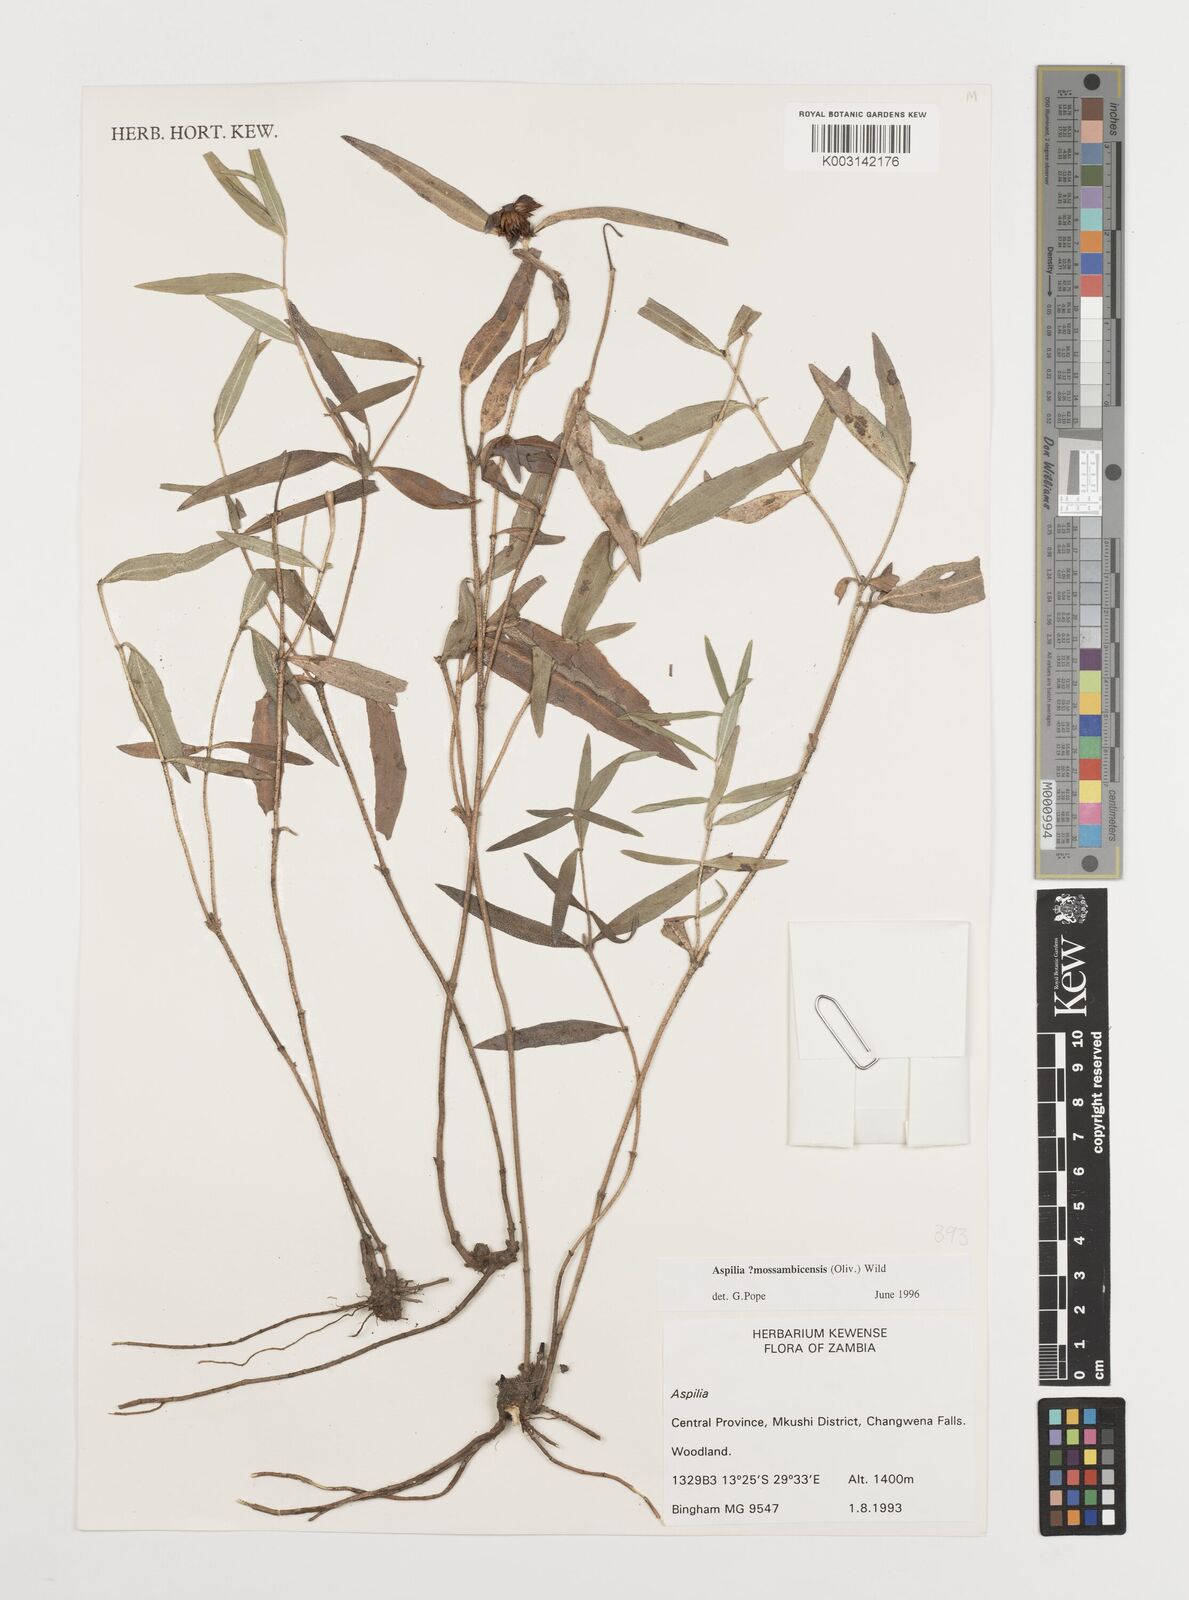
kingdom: Plantae
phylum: Tracheophyta
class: Magnoliopsida
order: Asterales
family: Asteraceae
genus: Aspilia
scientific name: Aspilia mossambicensis
